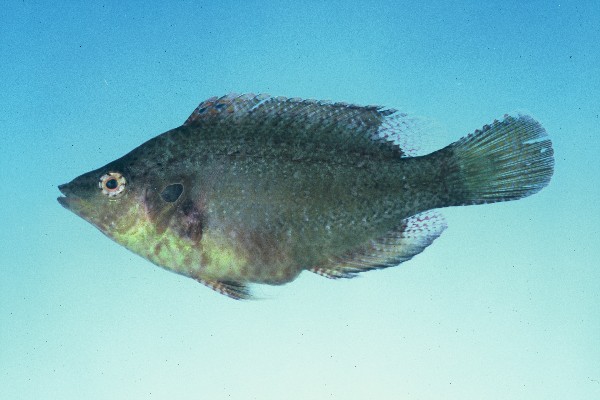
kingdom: Animalia
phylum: Chordata
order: Perciformes
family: Labridae
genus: Pteragogus
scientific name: Pteragogus pelycus
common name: Sideburn wrasse
